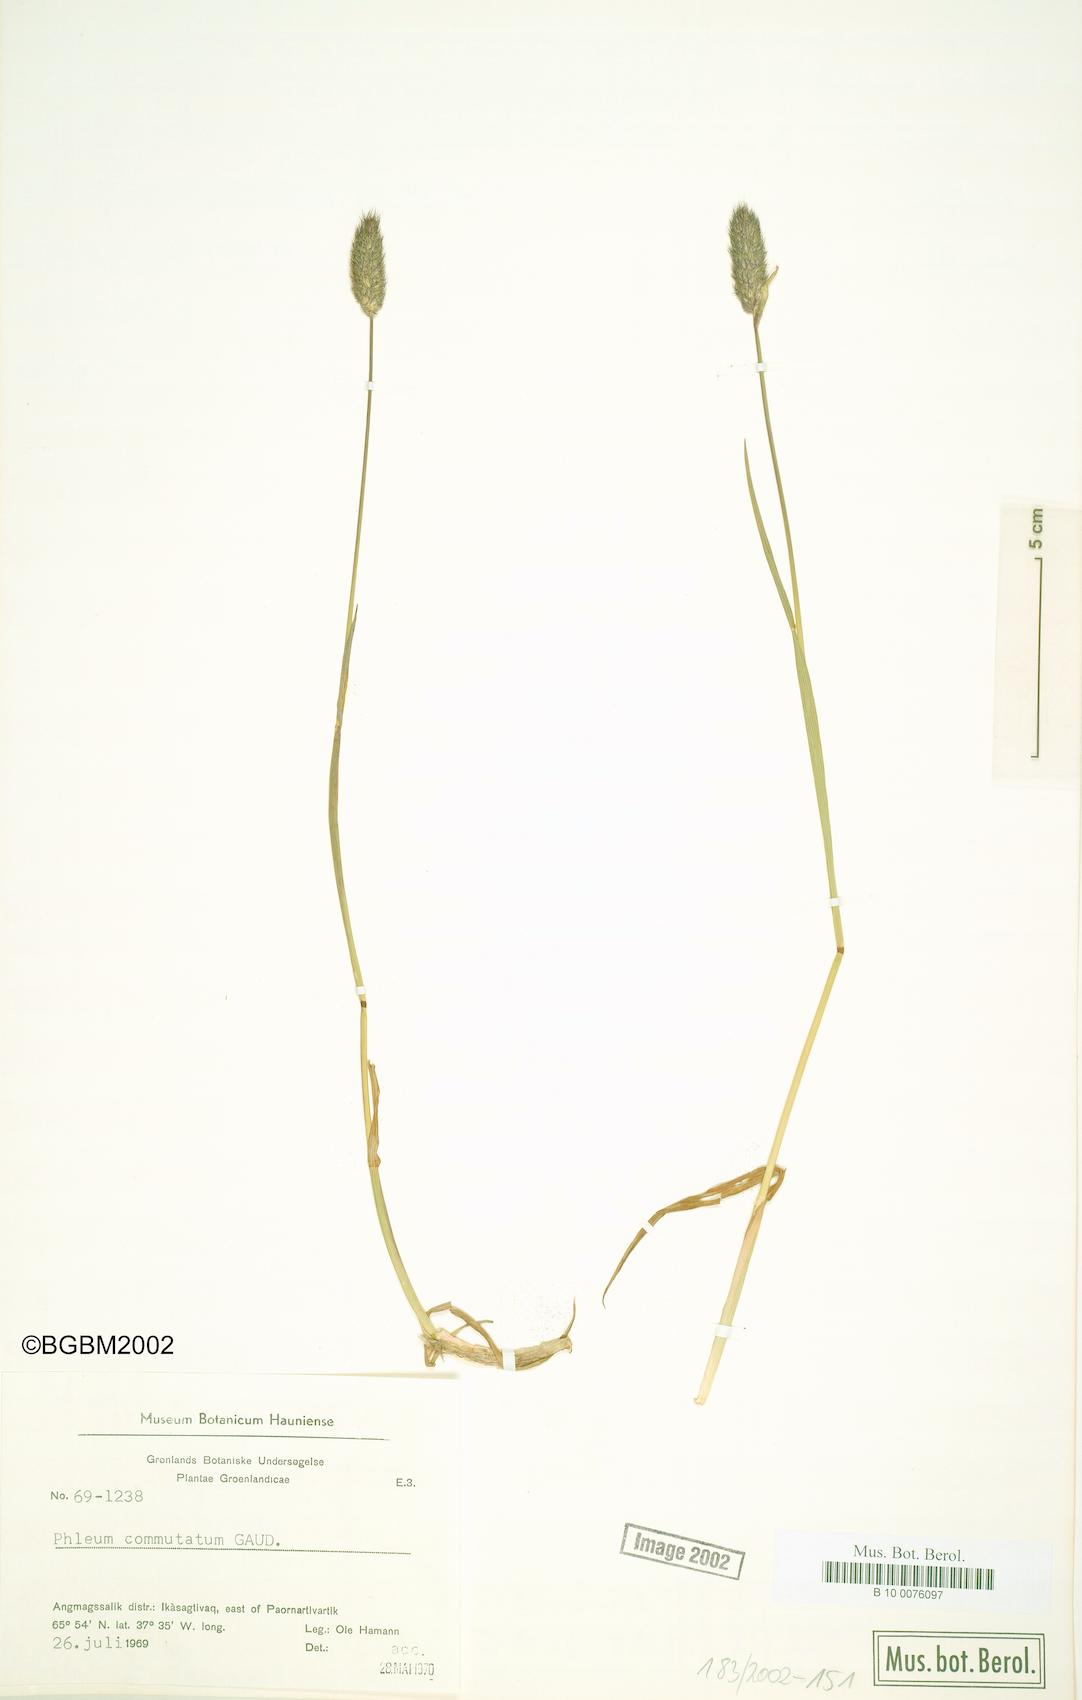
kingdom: Plantae
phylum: Tracheophyta
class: Liliopsida
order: Poales
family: Poaceae
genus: Phleum
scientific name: Phleum alpinum
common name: Alpine cat's-tail
